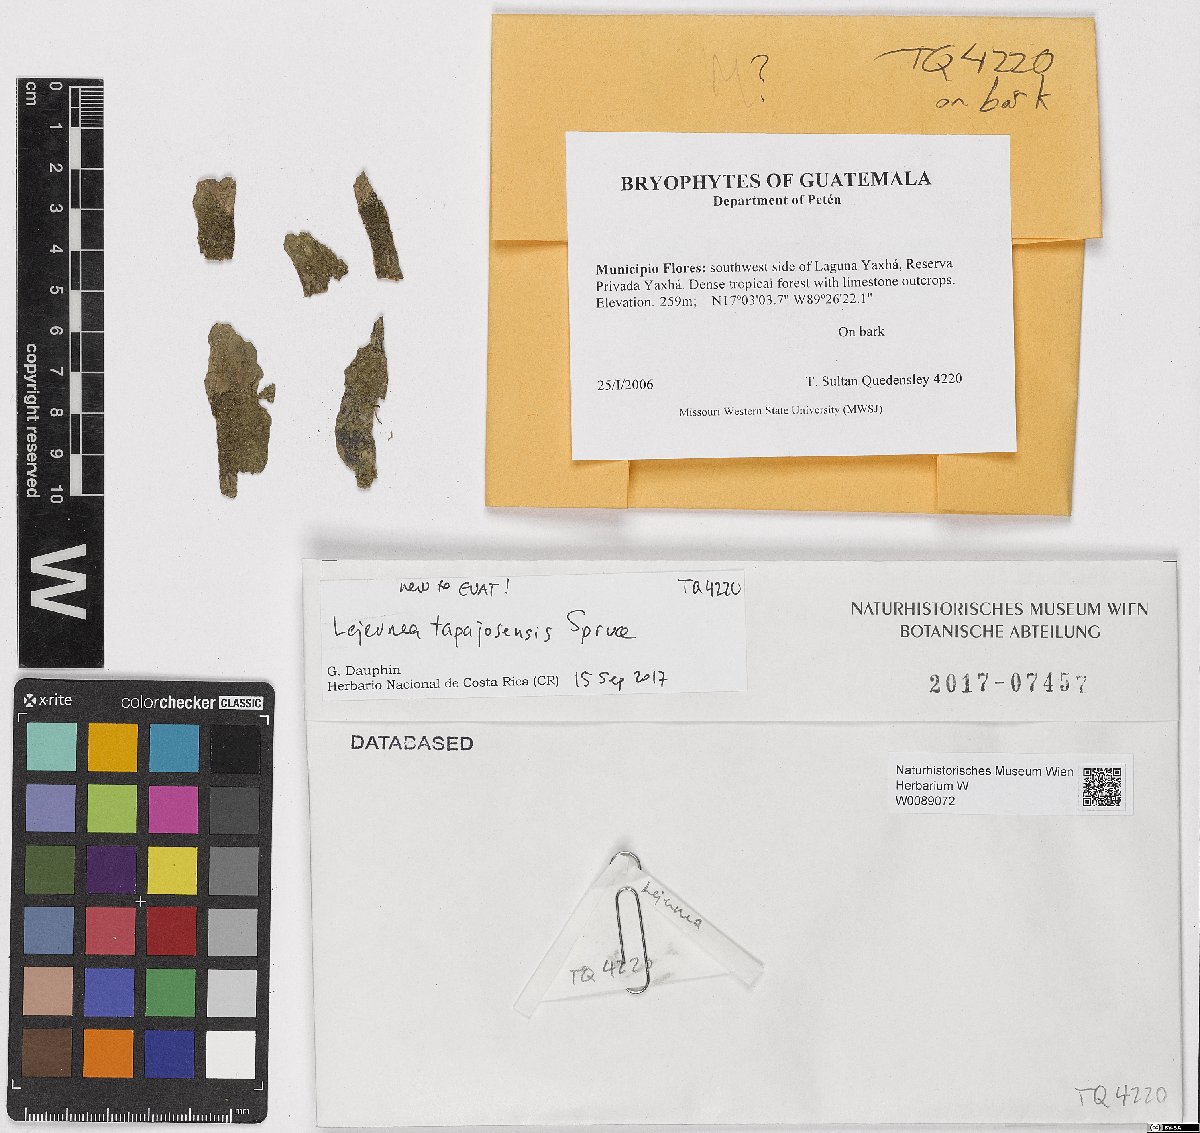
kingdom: Plantae
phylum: Marchantiophyta
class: Jungermanniopsida
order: Porellales
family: Lejeuneaceae
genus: Lejeunea
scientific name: Lejeunea parviloba
